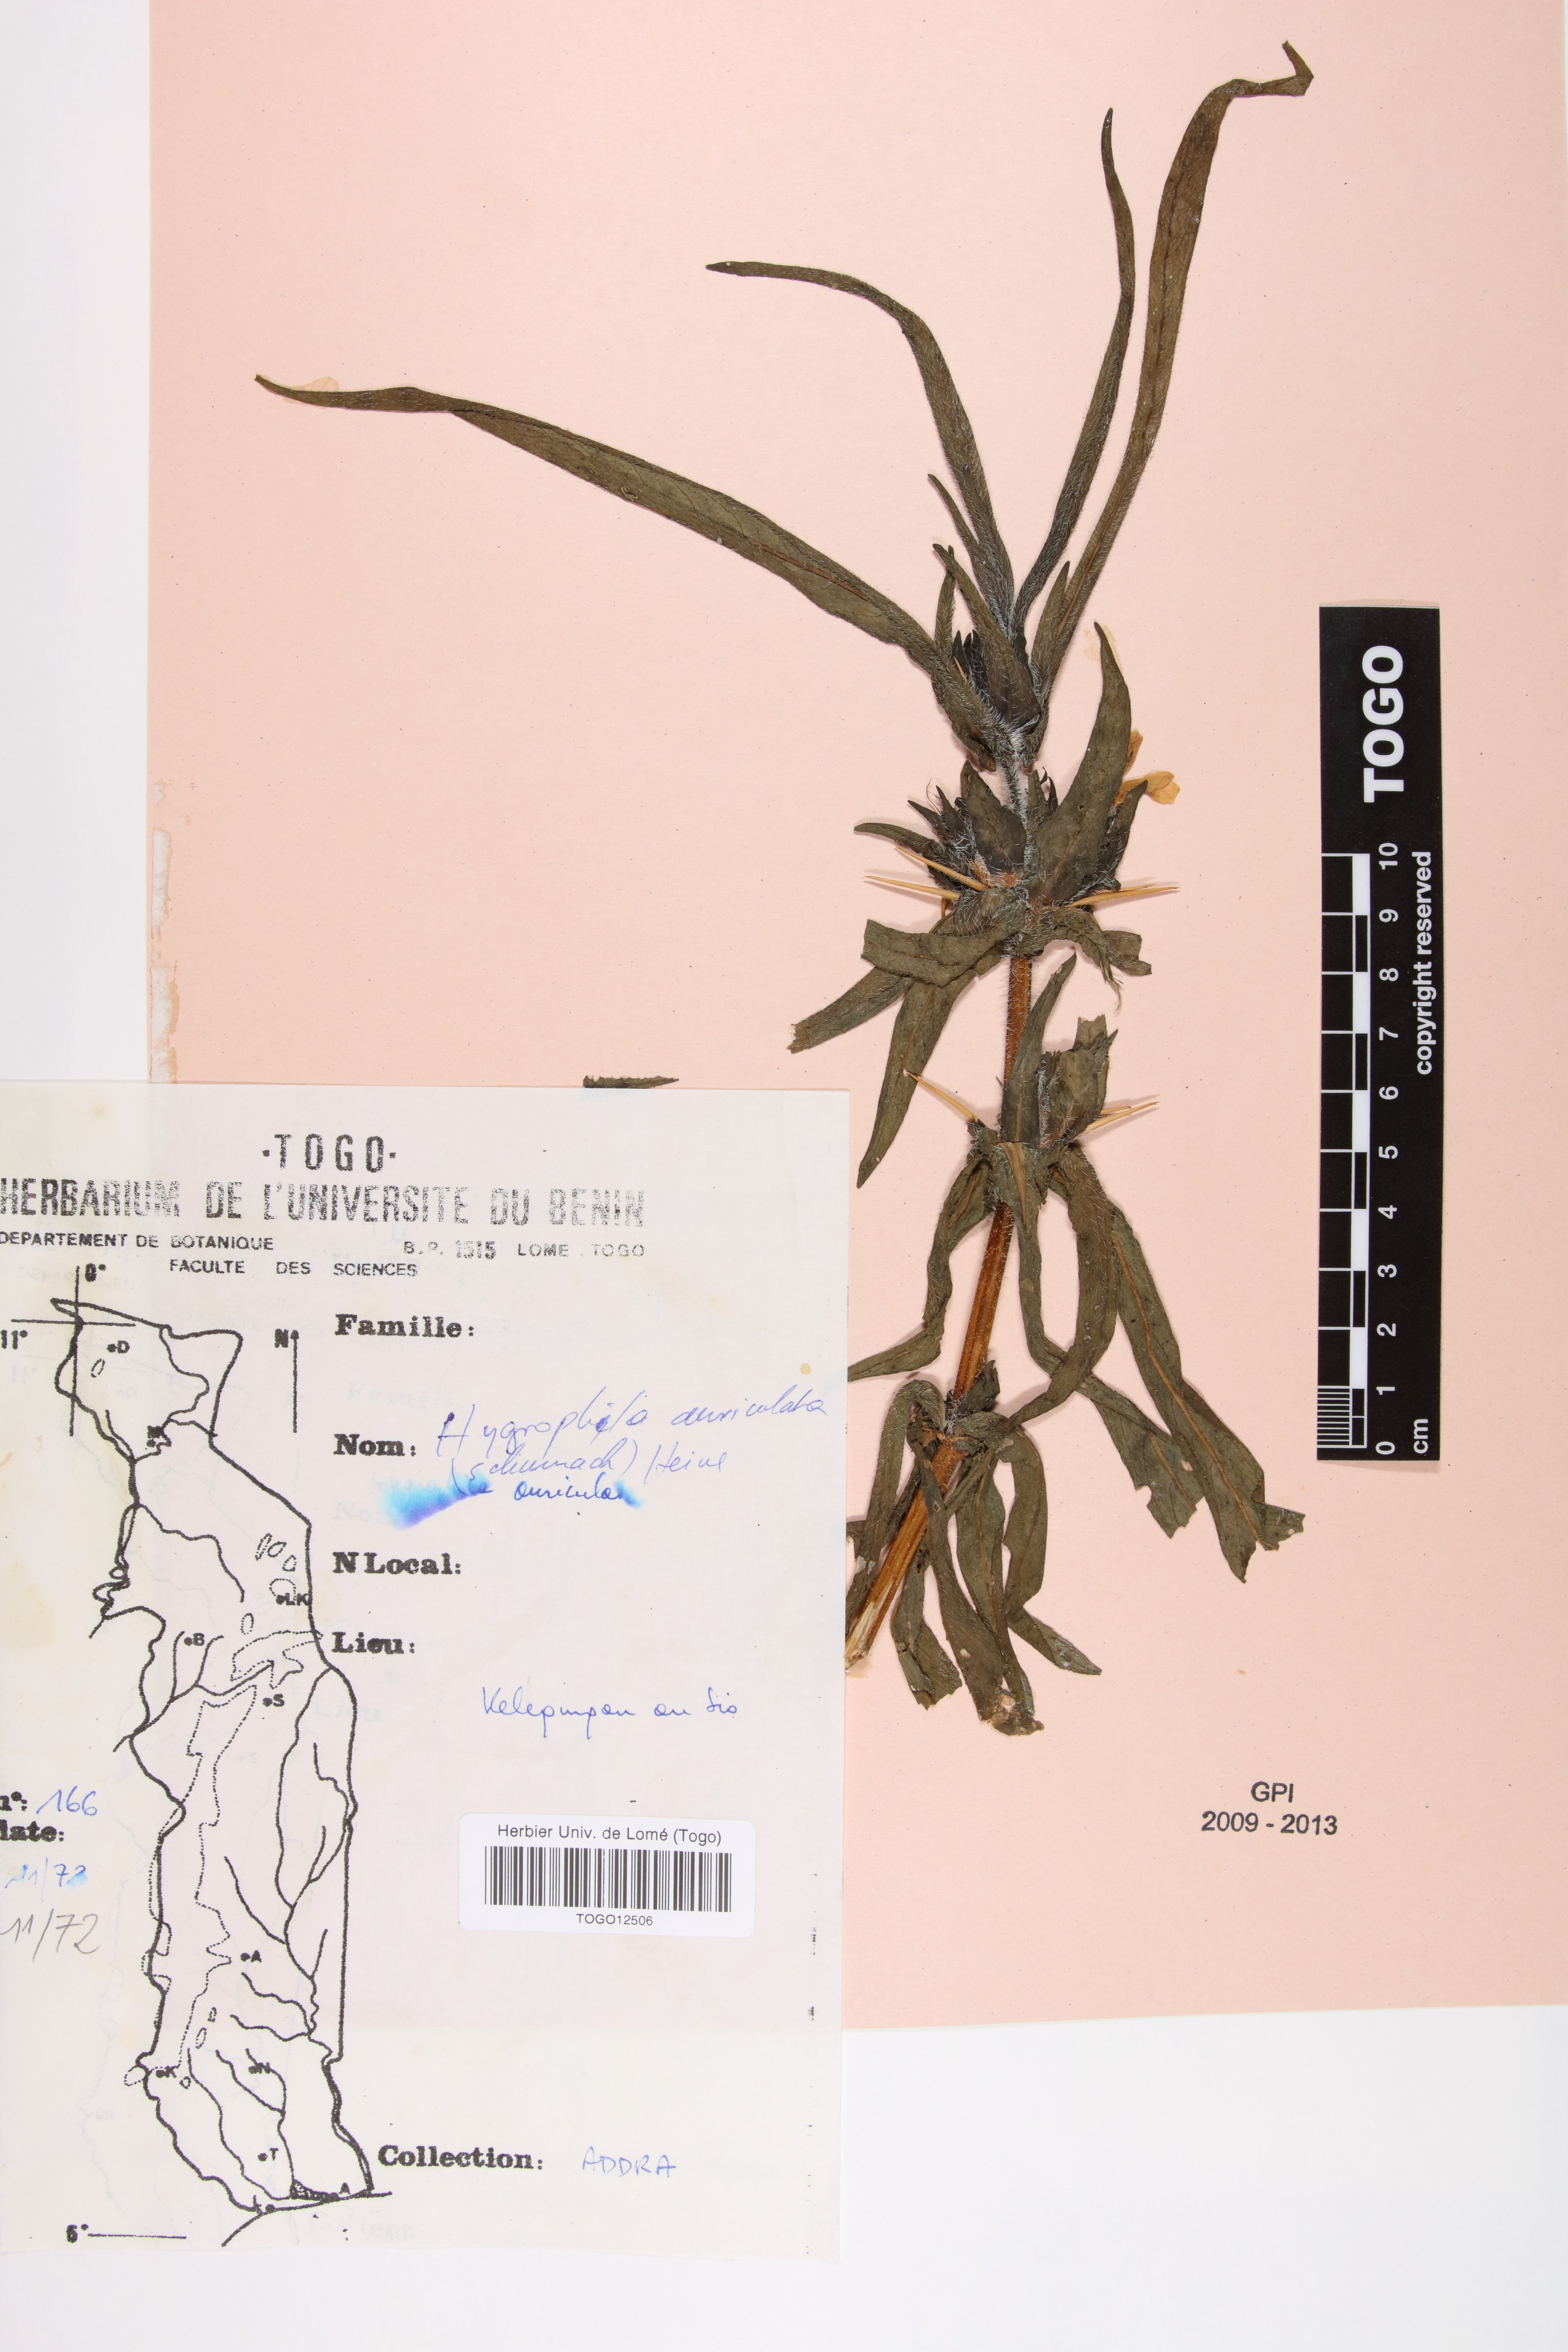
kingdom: Plantae
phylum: Tracheophyta
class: Magnoliopsida
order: Lamiales
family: Acanthaceae
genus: Hygrophila
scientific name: Hygrophila auriculata
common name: Hygrophila
